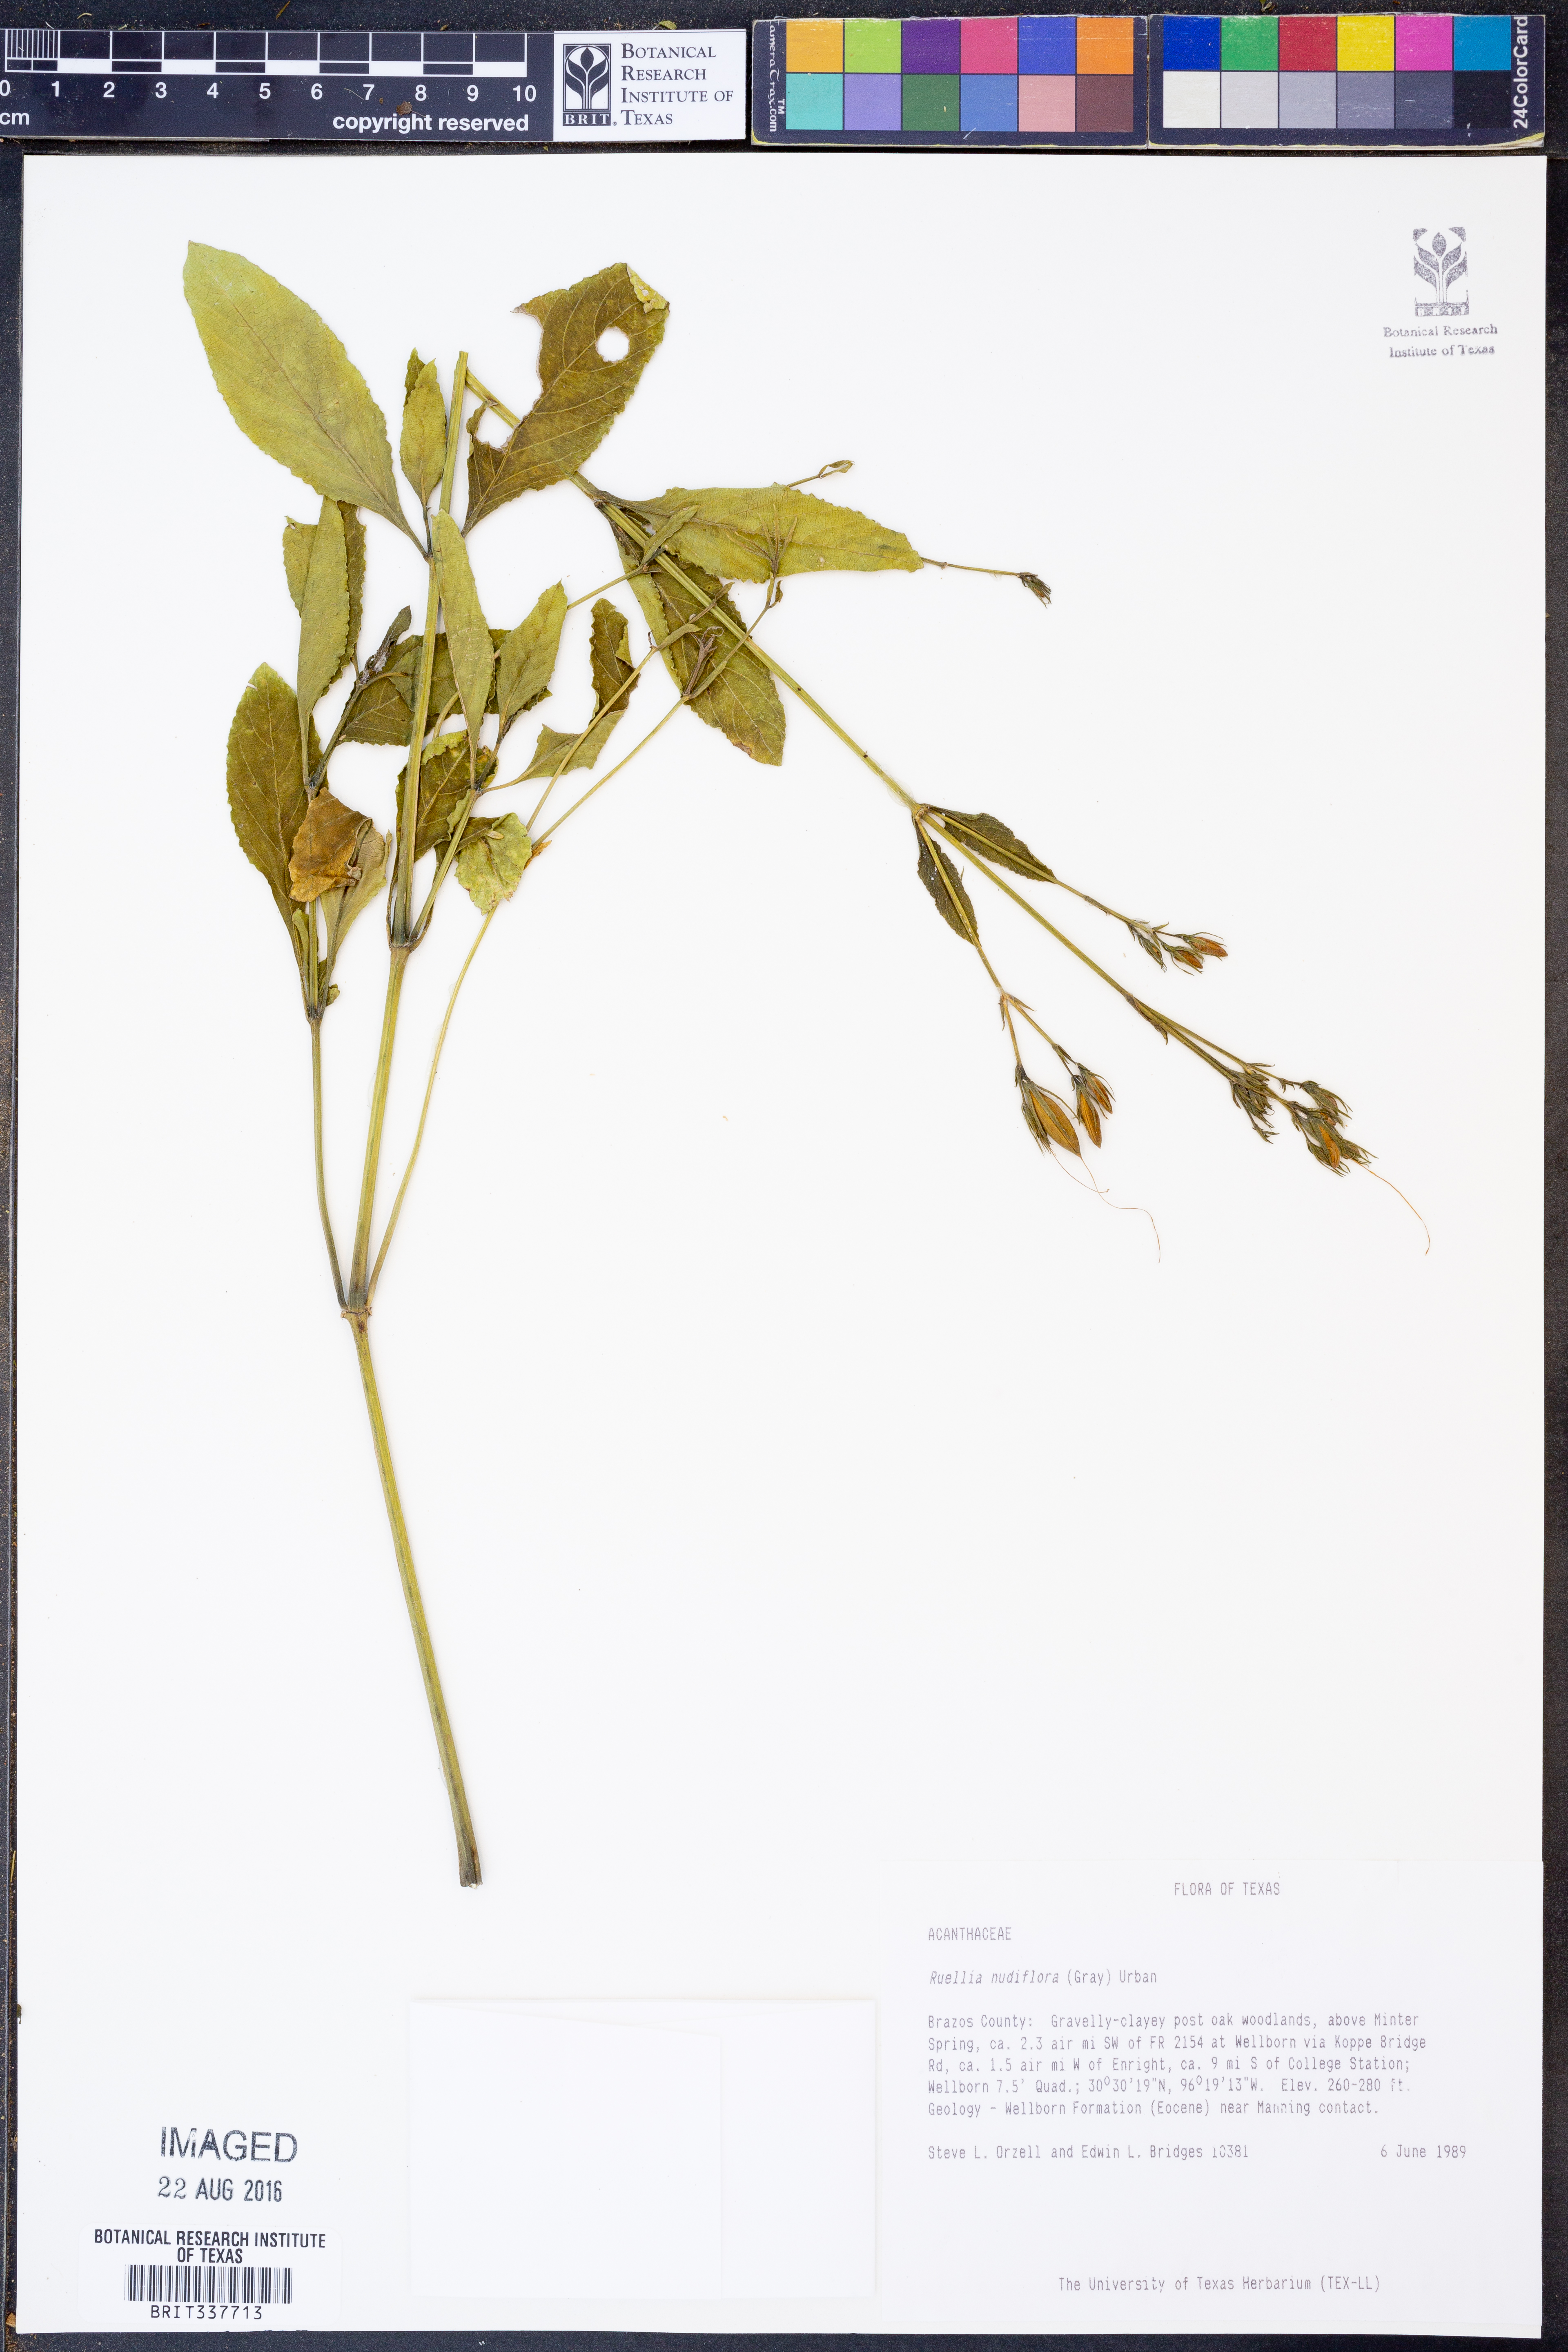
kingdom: Plantae
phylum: Tracheophyta
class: Magnoliopsida
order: Lamiales
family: Acanthaceae
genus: Ruellia
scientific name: Ruellia ciliatiflora
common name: Hairyflower wild petunia
